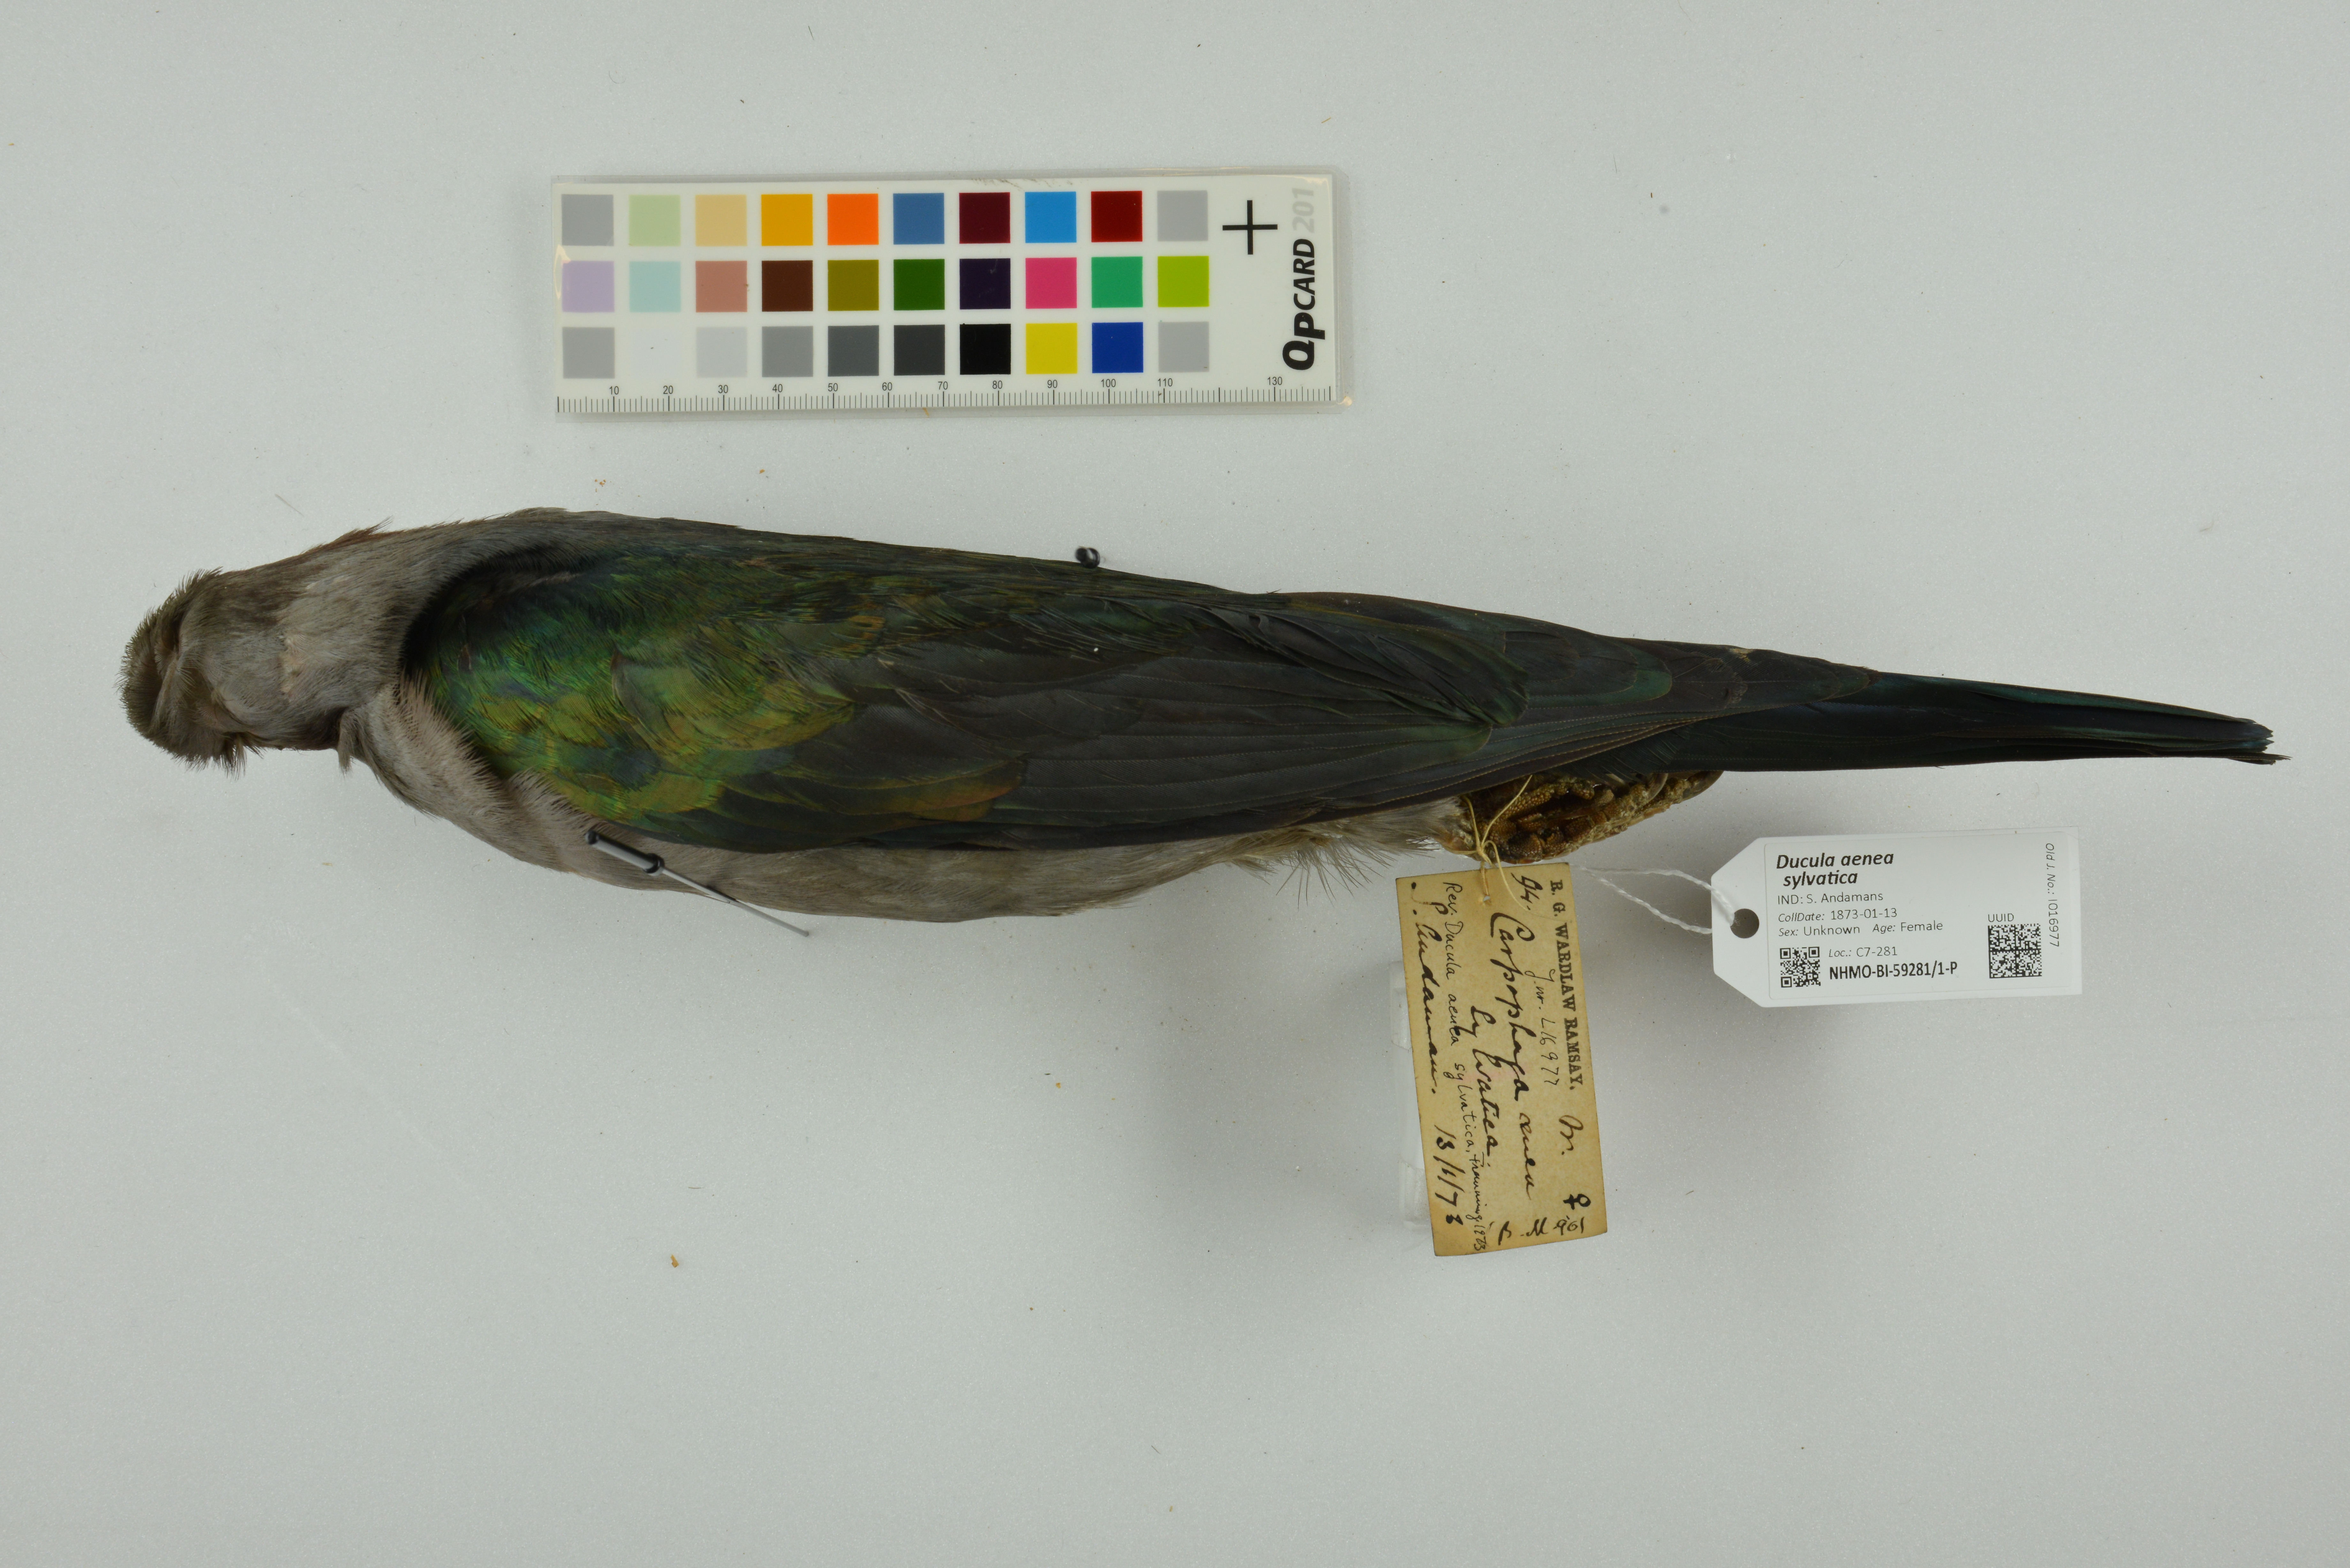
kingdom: Animalia
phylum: Chordata
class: Aves
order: Columbiformes
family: Columbidae
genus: Ducula
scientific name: Ducula aenea
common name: Green imperial pigeon
